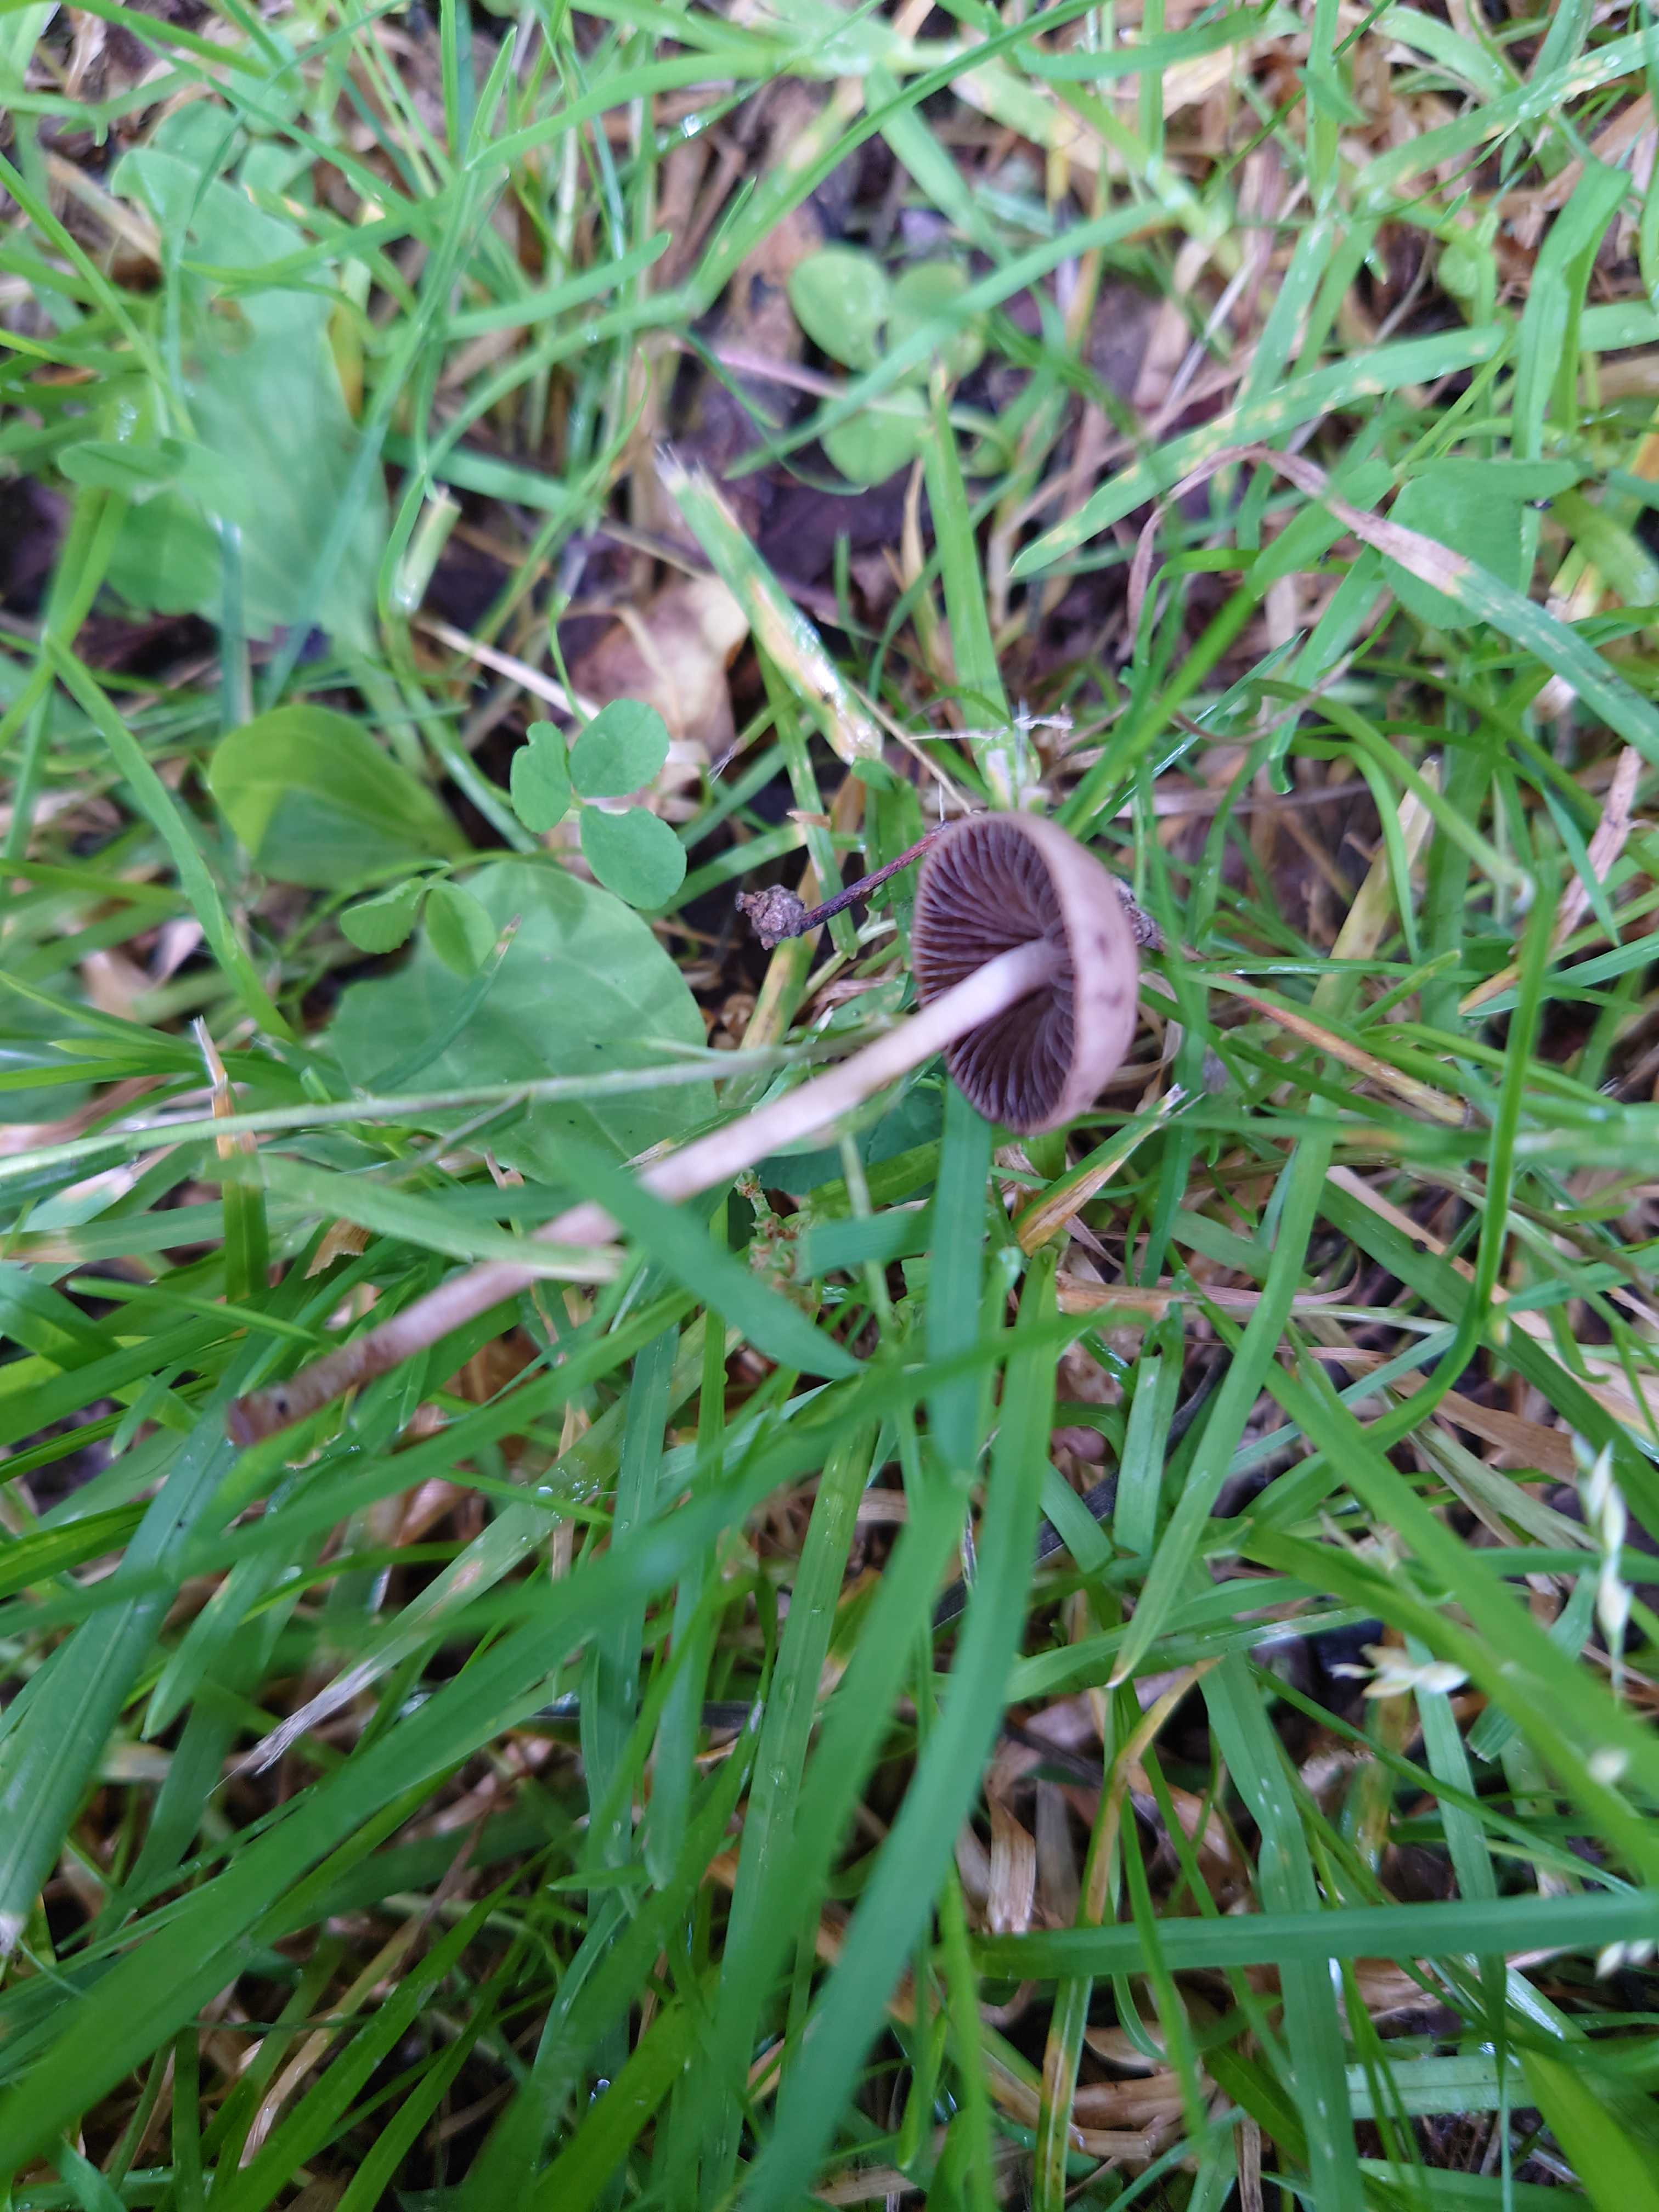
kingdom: Fungi
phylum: Basidiomycota
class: Agaricomycetes
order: Agaricales
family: Bolbitiaceae
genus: Panaeolina
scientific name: Panaeolina foenisecii
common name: høslætsvamp
